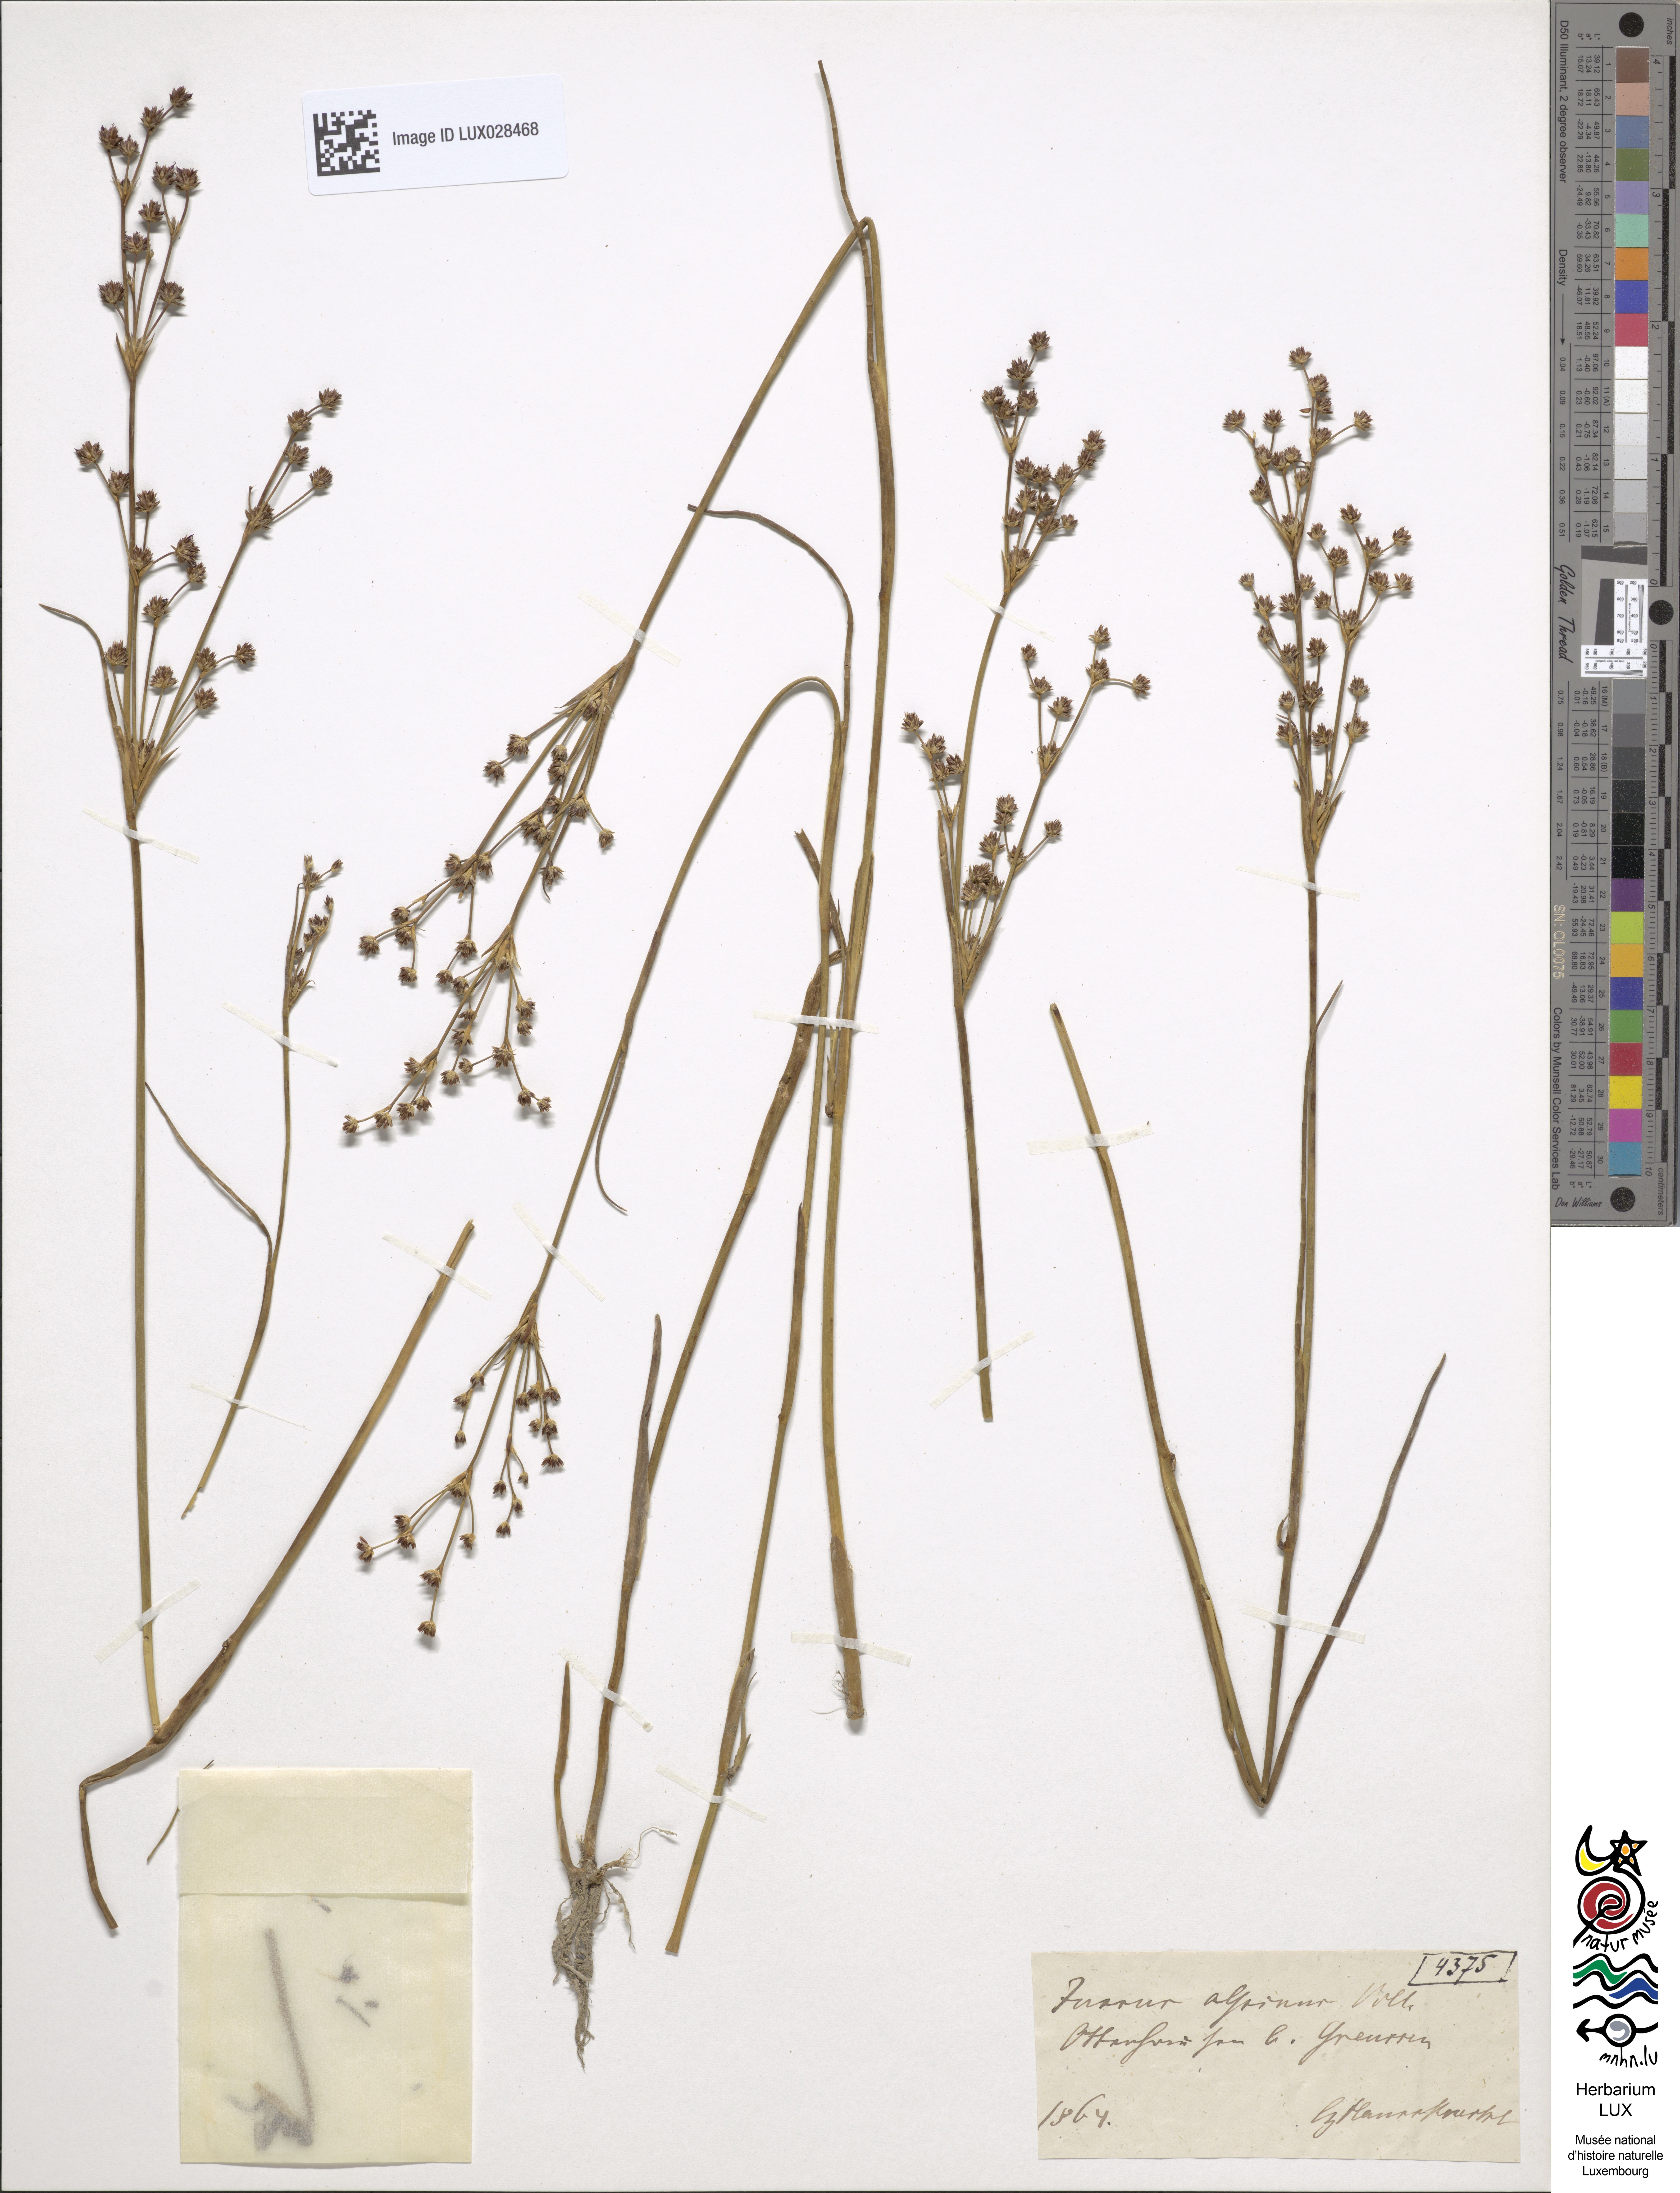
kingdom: Plantae
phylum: Tracheophyta
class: Liliopsida
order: Poales
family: Juncaceae
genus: Juncus
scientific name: Juncus alpinoarticulatus
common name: Alpine rush
